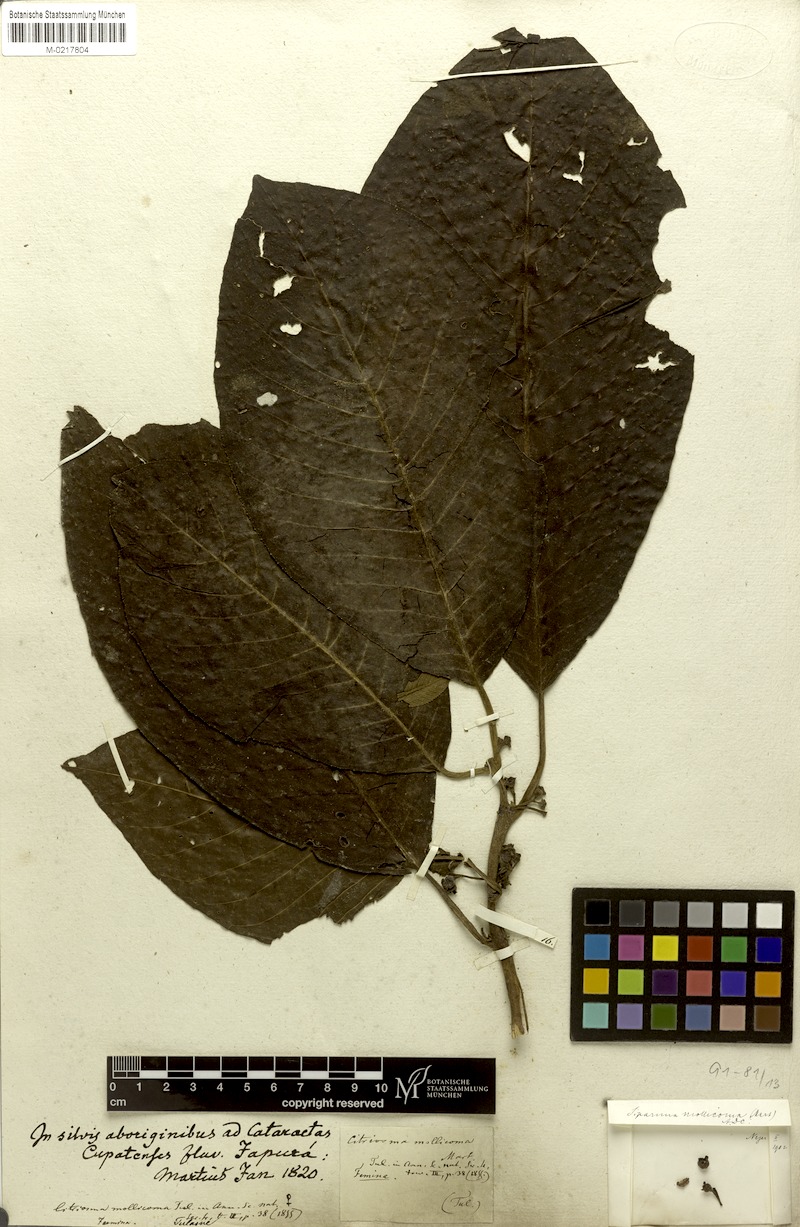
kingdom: Plantae
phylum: Tracheophyta
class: Magnoliopsida
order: Laurales
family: Siparunaceae
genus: Siparuna
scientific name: Siparuna sessiliflora
